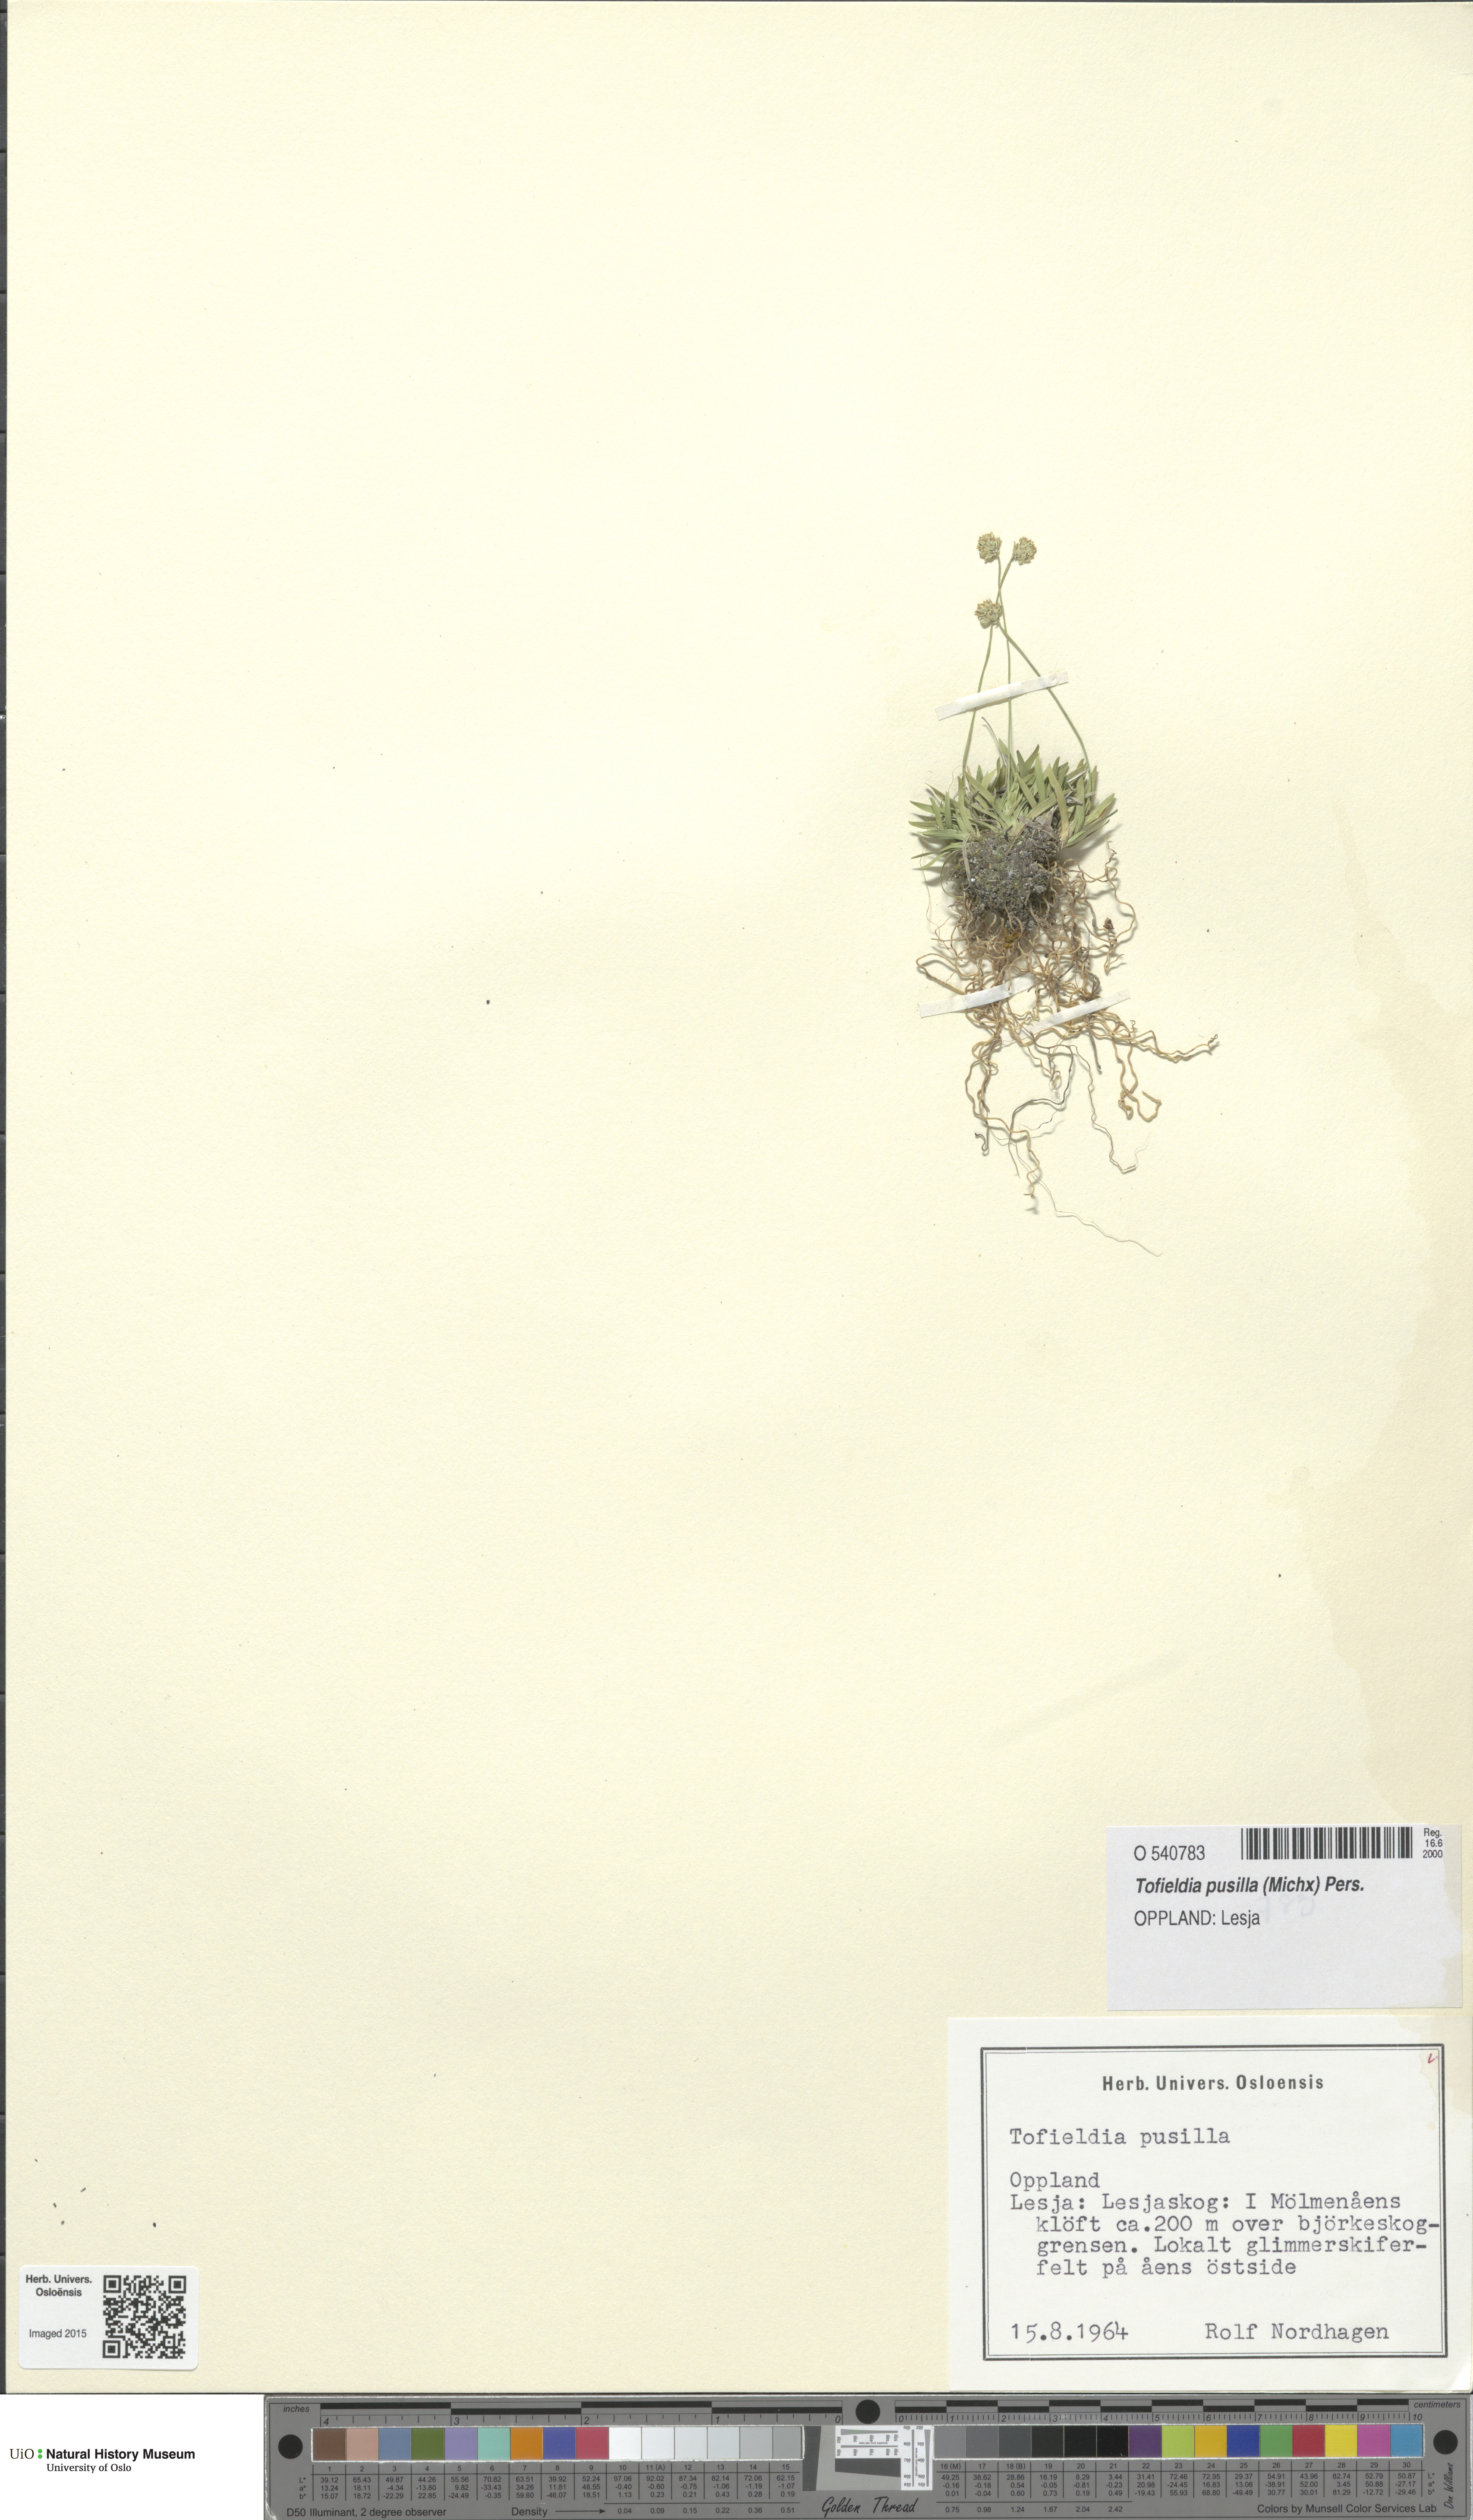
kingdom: Plantae
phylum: Tracheophyta
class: Liliopsida
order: Alismatales
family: Tofieldiaceae
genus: Tofieldia
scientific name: Tofieldia pusilla
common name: Scottish false asphodel
